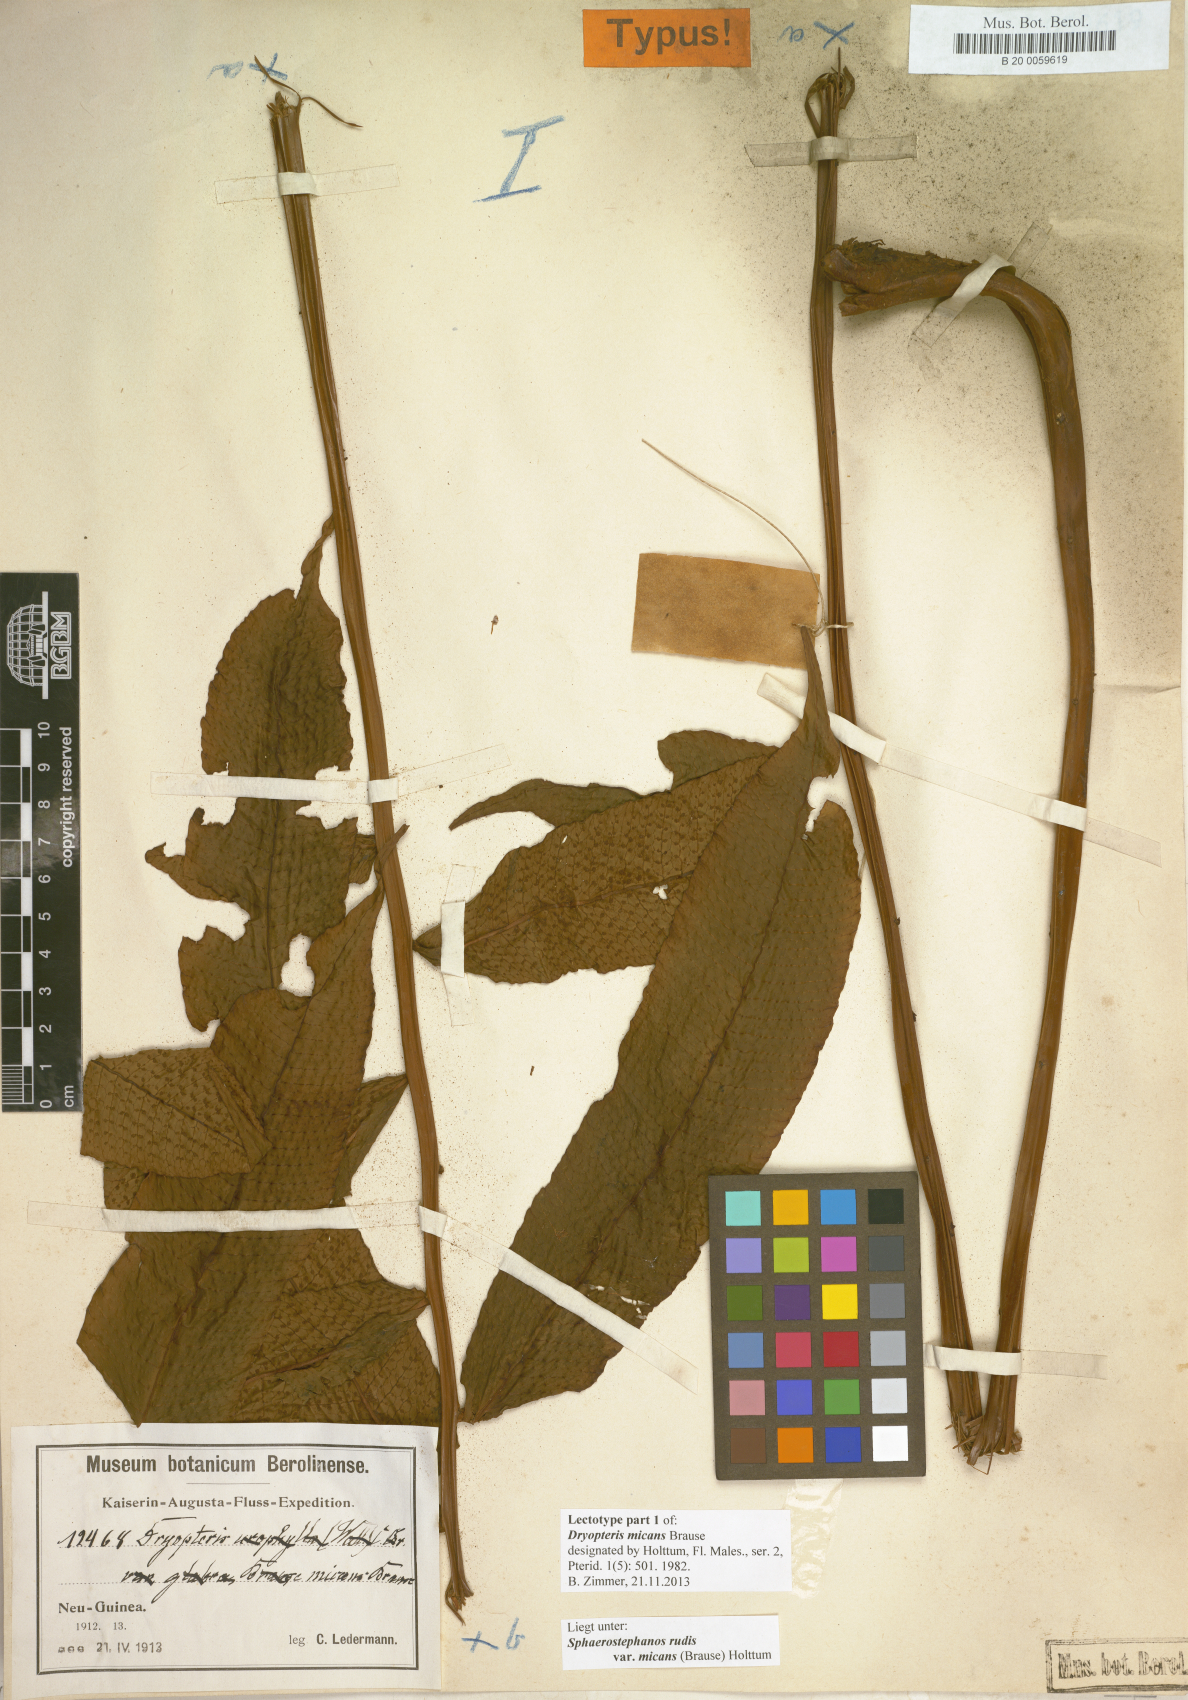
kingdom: Plantae
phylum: Tracheophyta
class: Polypodiopsida
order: Polypodiales
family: Thelypteridaceae
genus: Sphaerostephanos
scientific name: Sphaerostephanos rudis
